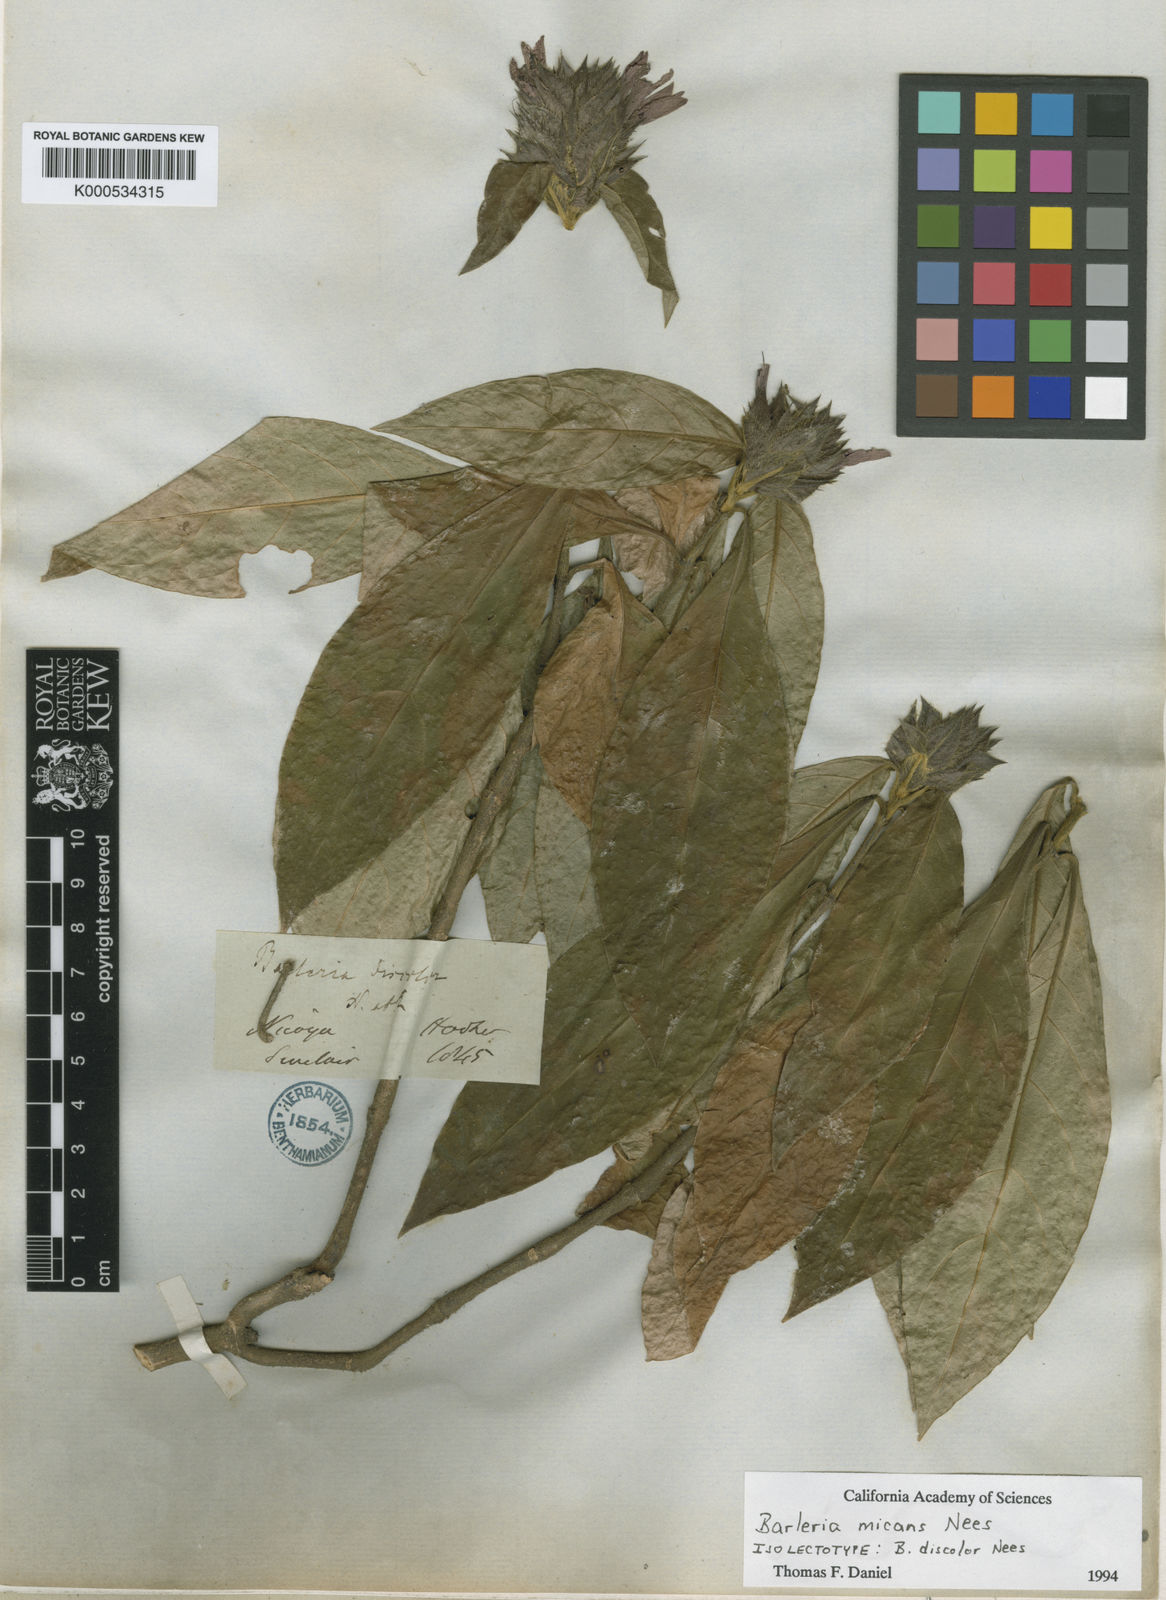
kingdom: Plantae
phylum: Tracheophyta
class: Magnoliopsida
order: Lamiales
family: Acanthaceae
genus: Barleria
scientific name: Barleria oenotheroides
